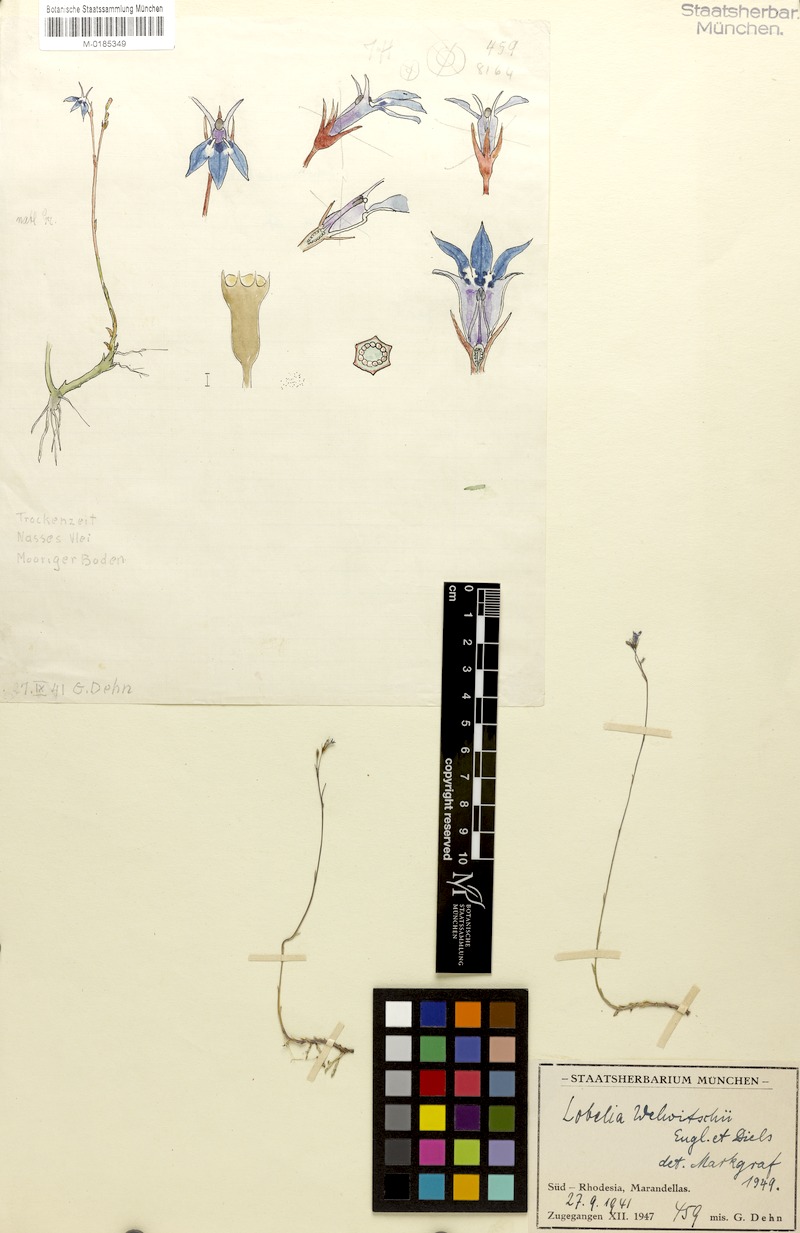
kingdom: Plantae
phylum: Tracheophyta
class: Magnoliopsida
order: Asterales
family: Campanulaceae
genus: Lobelia
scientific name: Lobelia welwitschii
